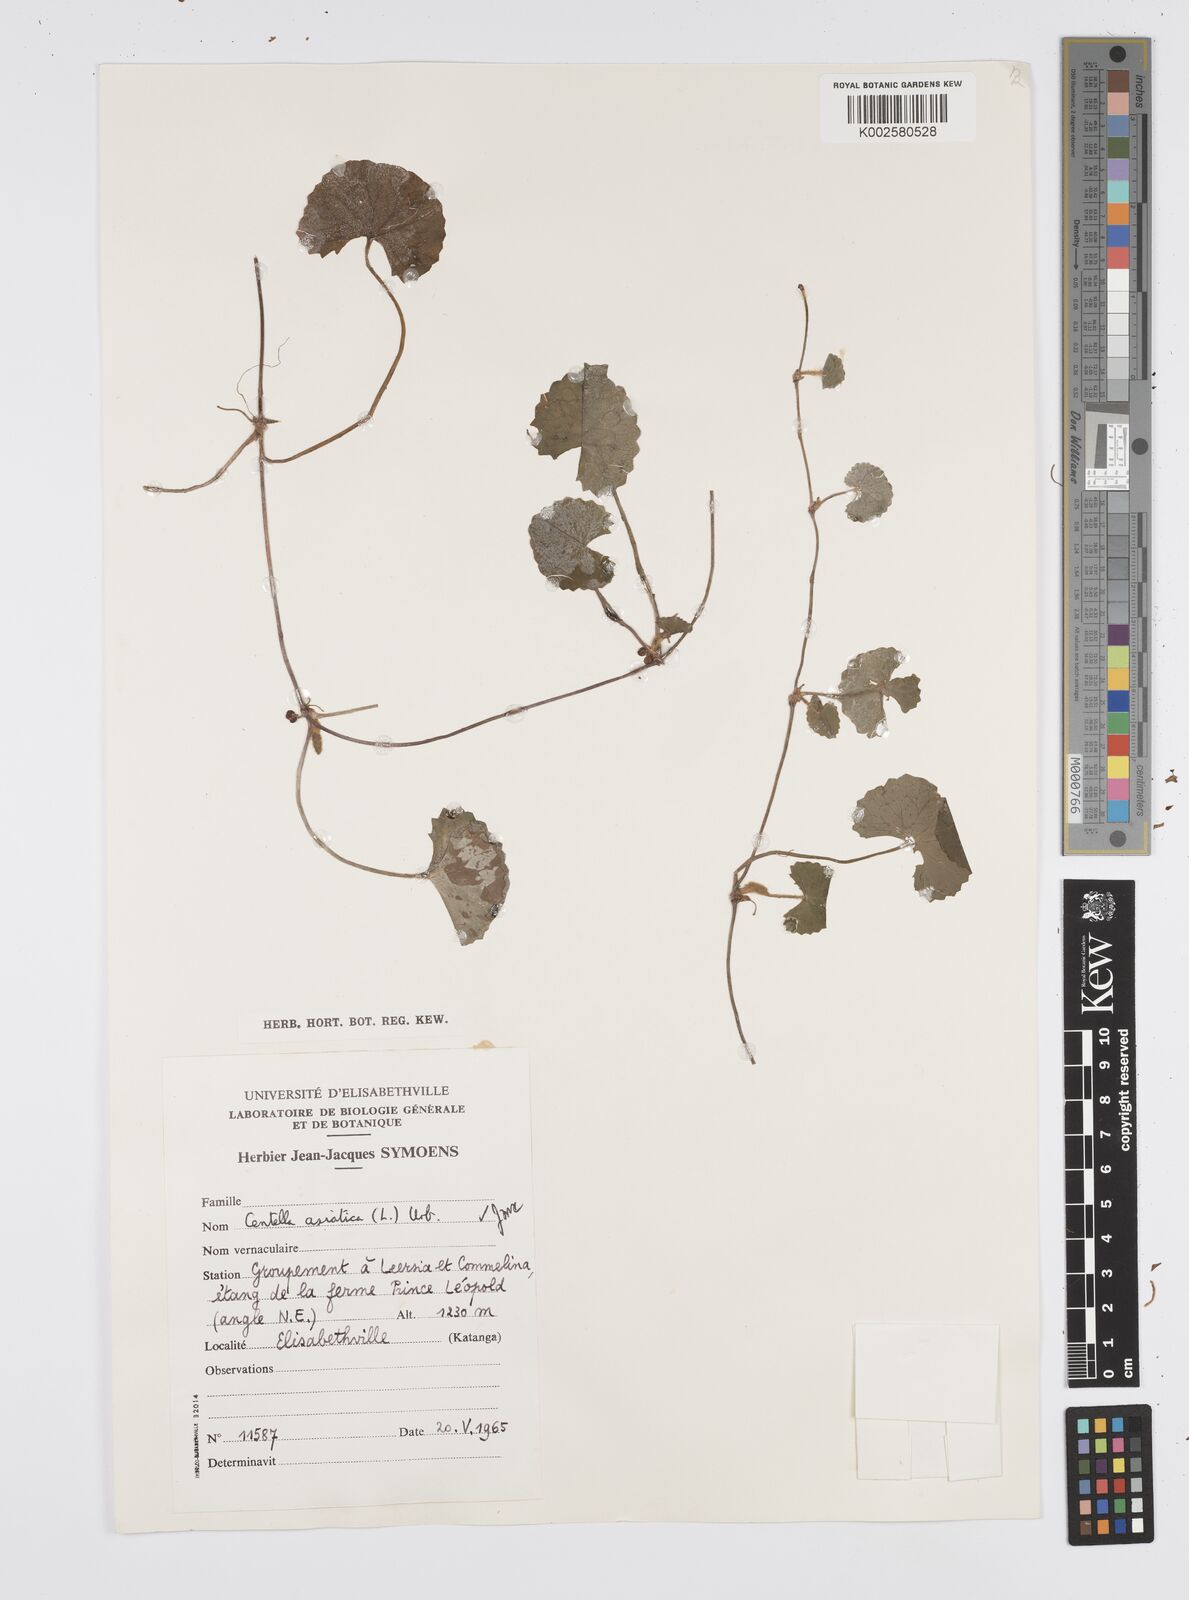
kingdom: Plantae
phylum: Tracheophyta
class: Magnoliopsida
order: Apiales
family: Apiaceae
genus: Centella
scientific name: Centella asiatica
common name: Spadeleaf
